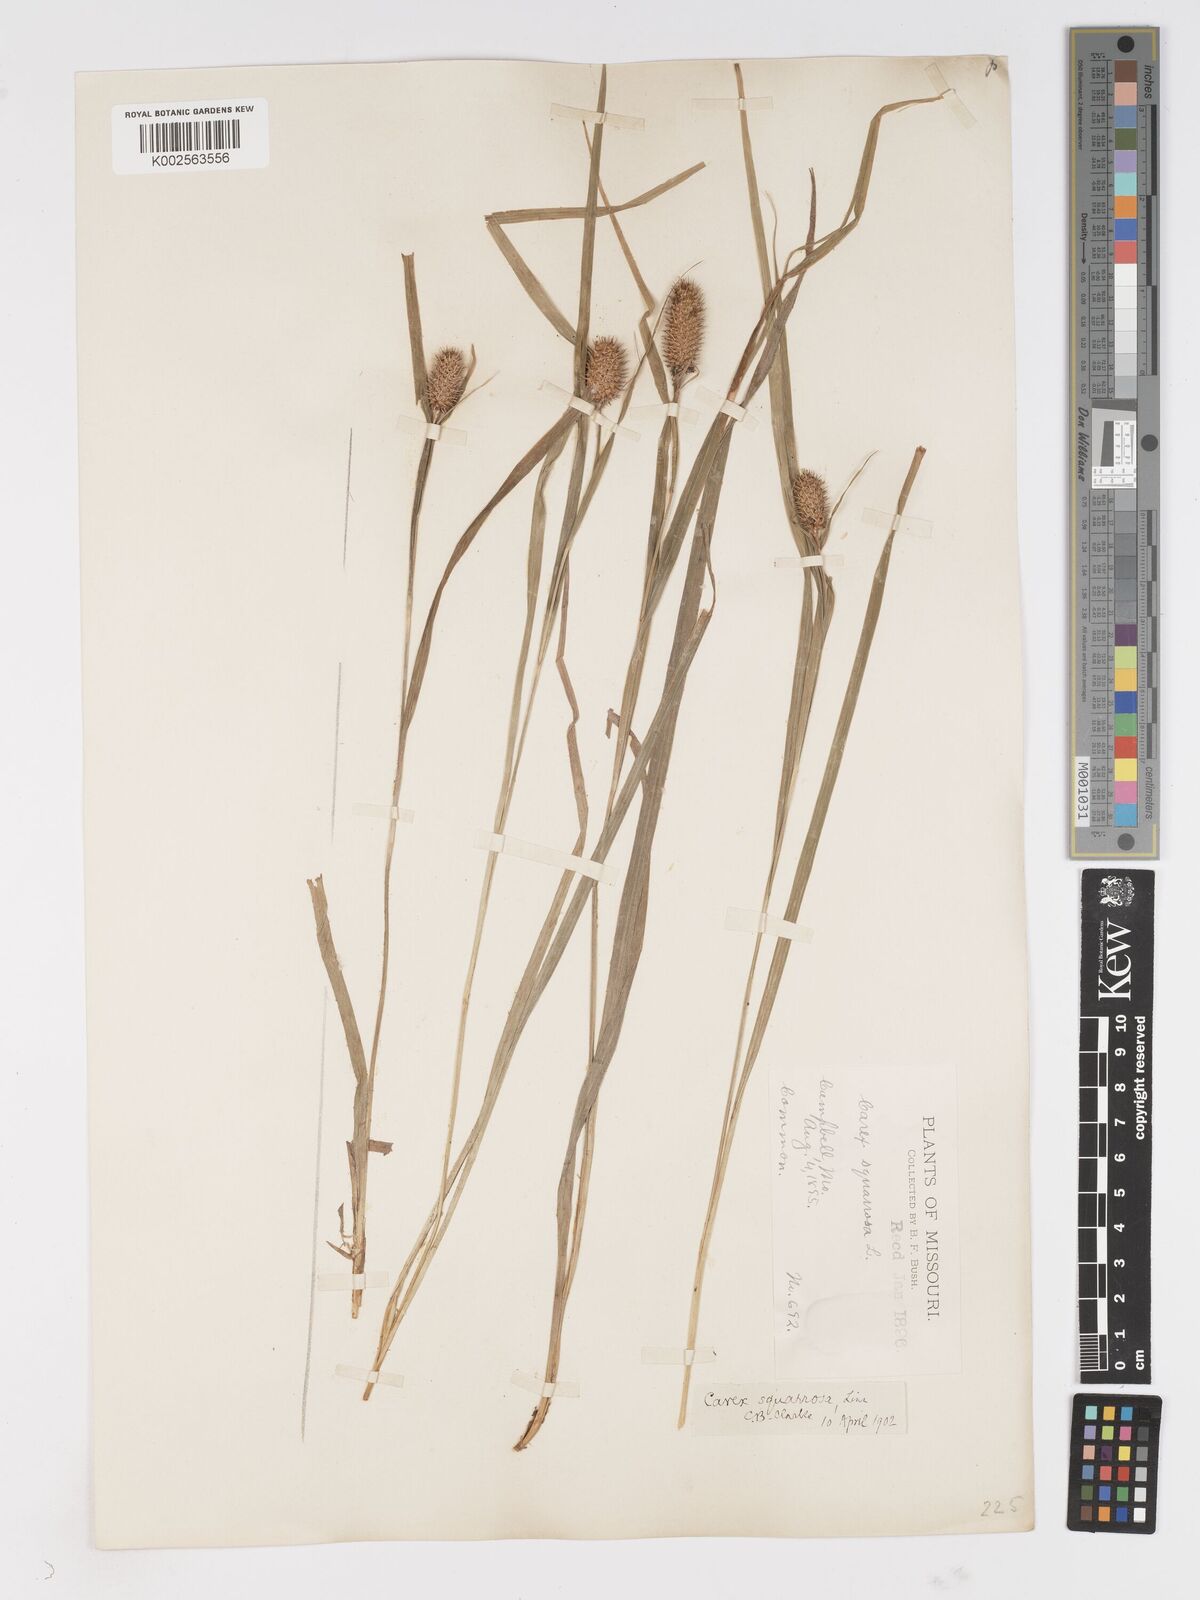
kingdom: Plantae
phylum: Tracheophyta
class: Liliopsida
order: Poales
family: Cyperaceae
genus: Carex
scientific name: Carex squarrosa
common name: Narrow-leaved cattail sedge
